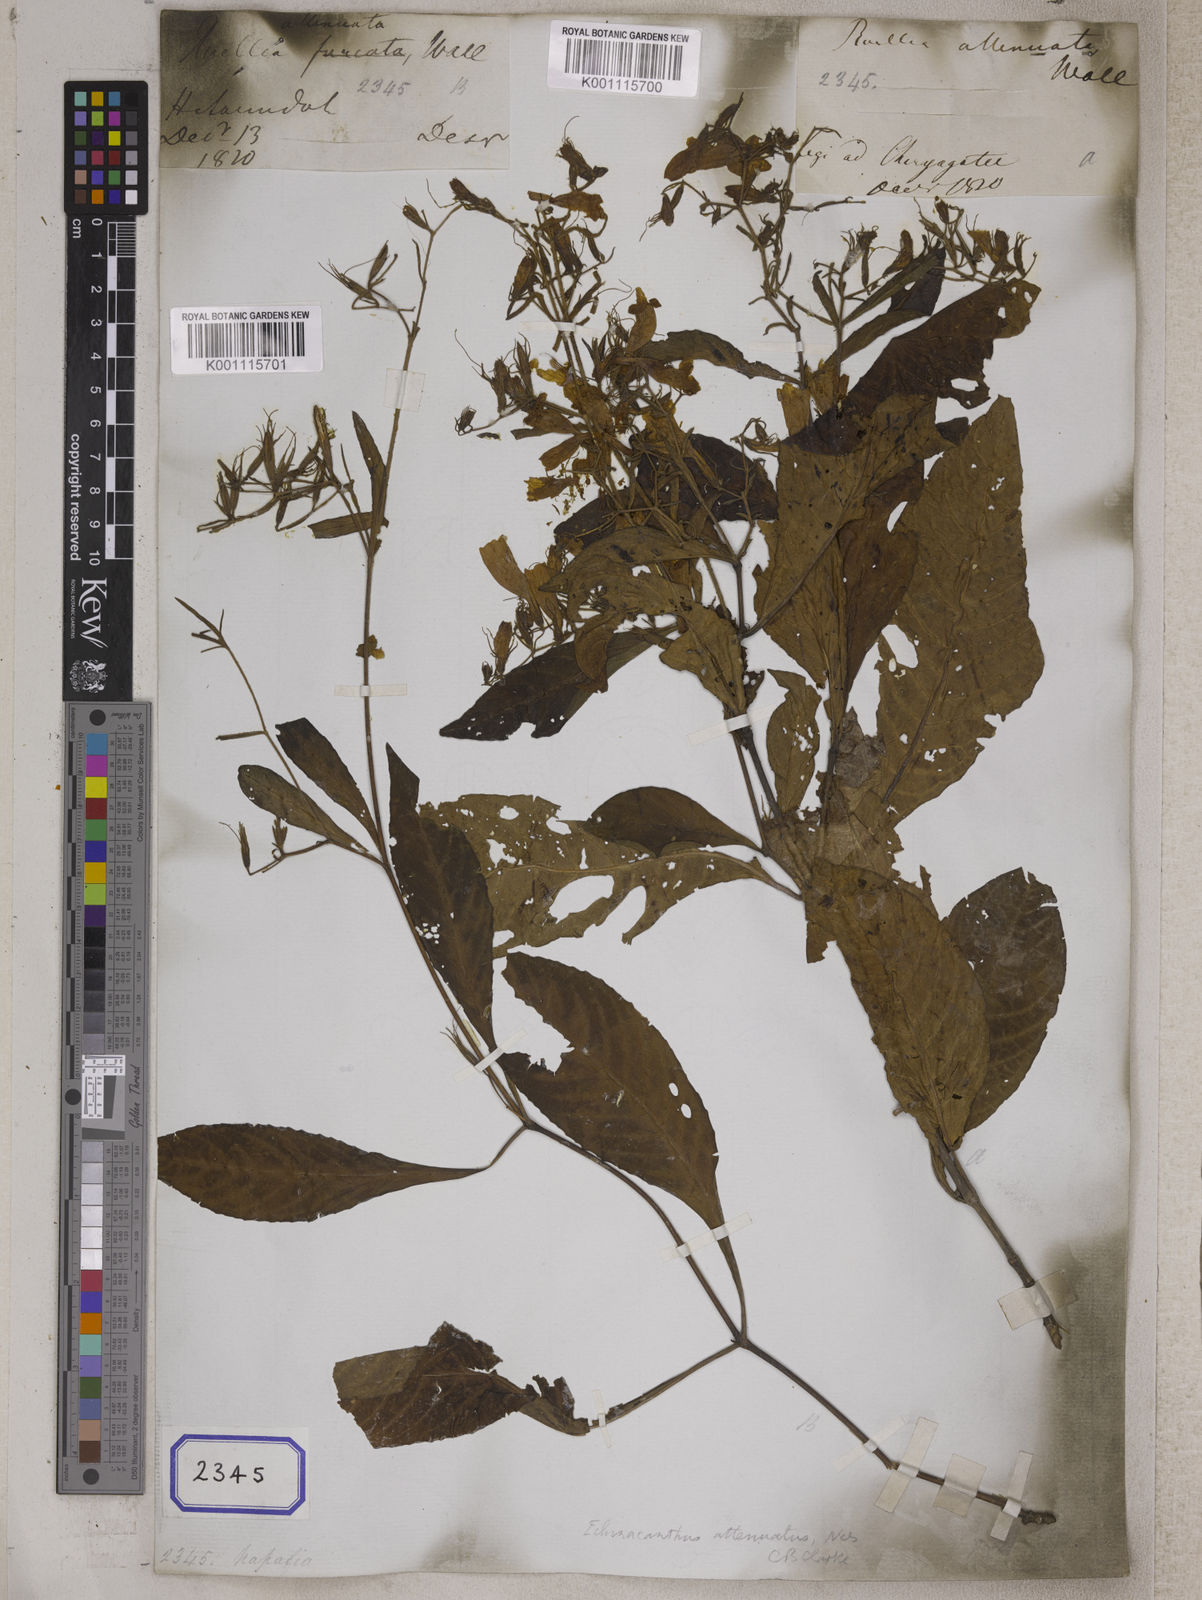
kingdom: Plantae
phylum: Tracheophyta
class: Magnoliopsida
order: Lamiales
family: Acanthaceae
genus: Ruellia
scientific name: Ruellia
